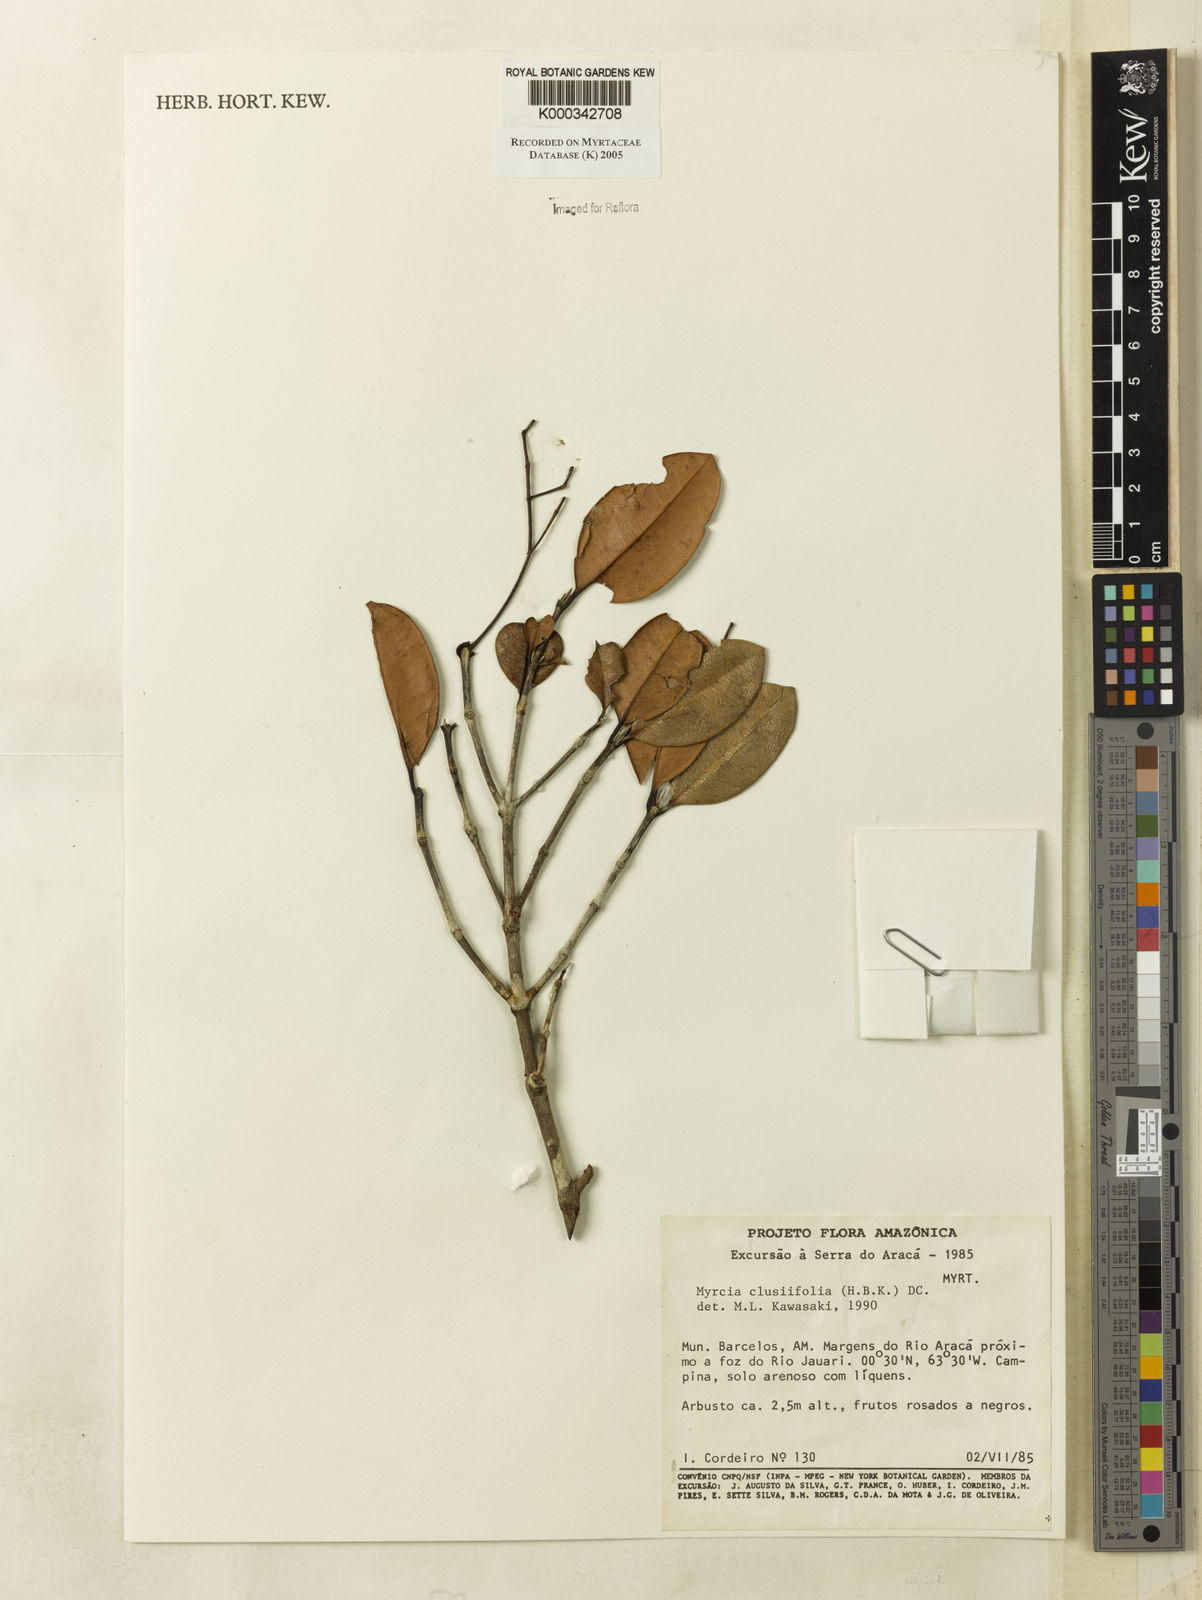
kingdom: Plantae
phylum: Tracheophyta
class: Magnoliopsida
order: Myrtales
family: Myrtaceae
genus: Myrcia
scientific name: Myrcia clusiifolia
